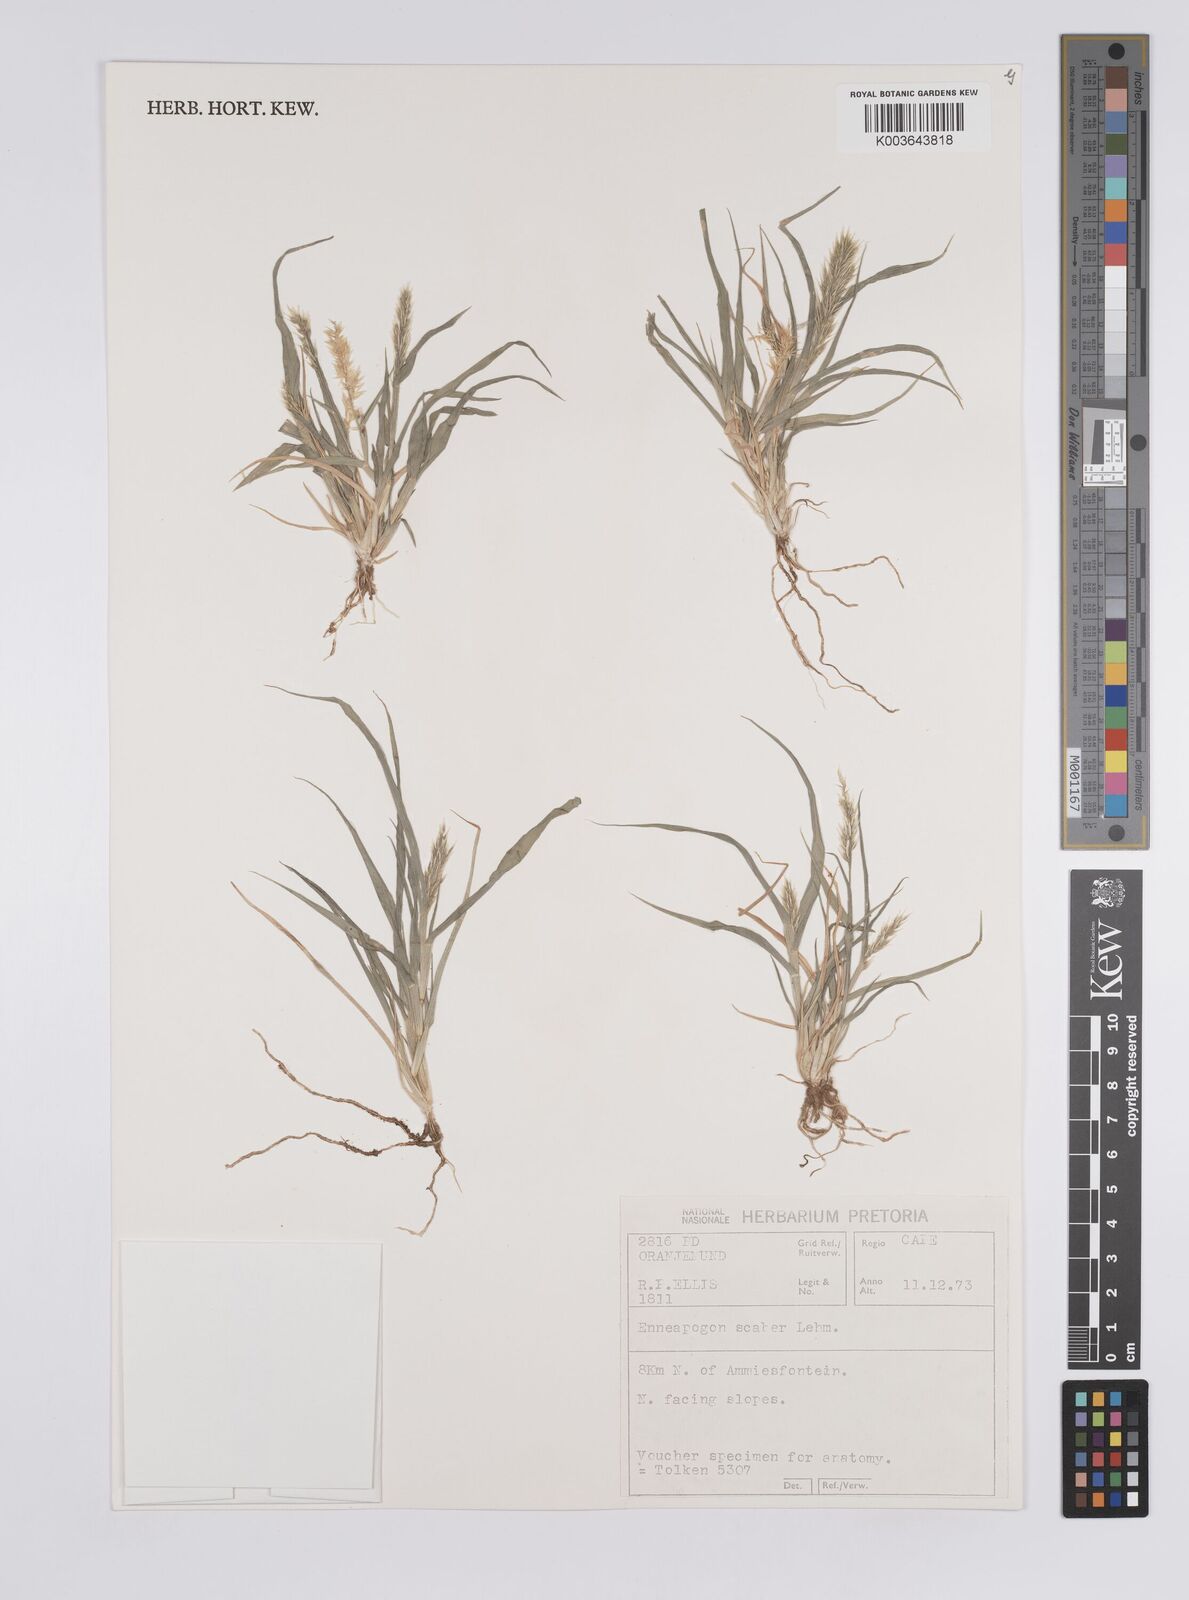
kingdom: Plantae
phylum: Tracheophyta
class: Liliopsida
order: Poales
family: Poaceae
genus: Enneapogon
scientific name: Enneapogon scaber
